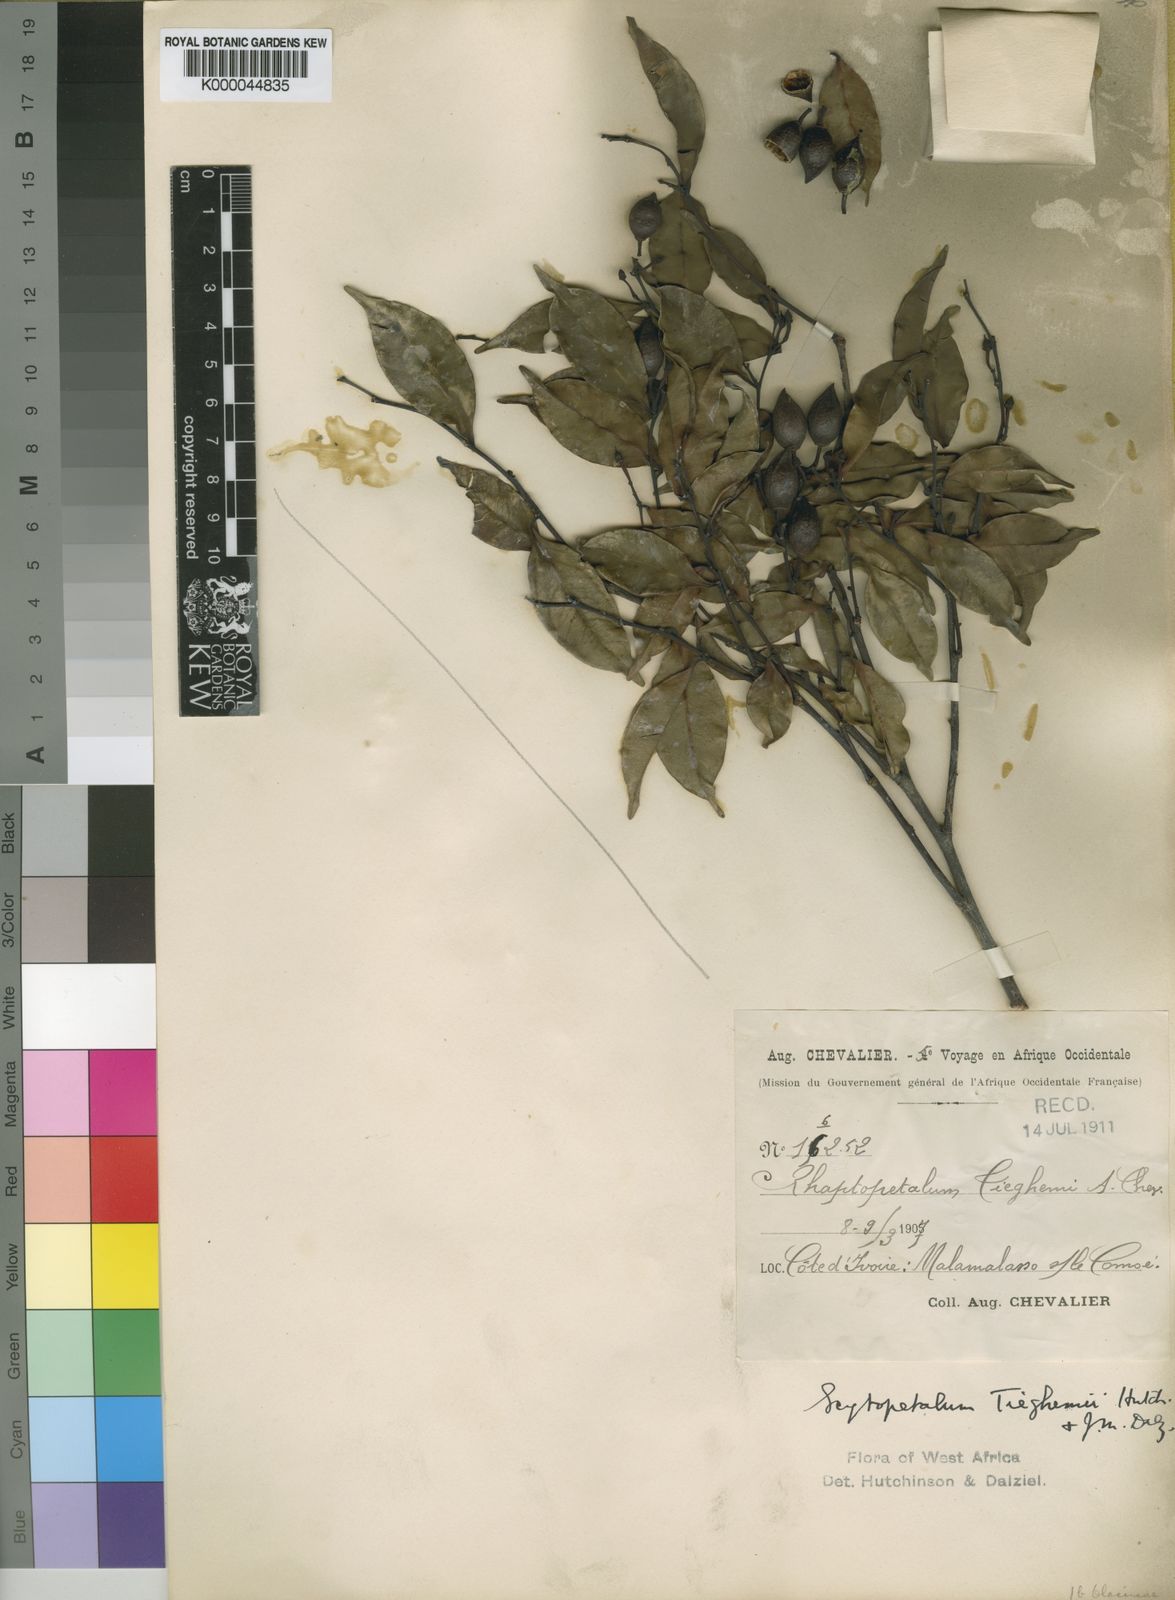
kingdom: Plantae
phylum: Tracheophyta
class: Magnoliopsida
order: Ericales
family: Lecythidaceae
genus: Scytopetalum
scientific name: Scytopetalum tieghemii
